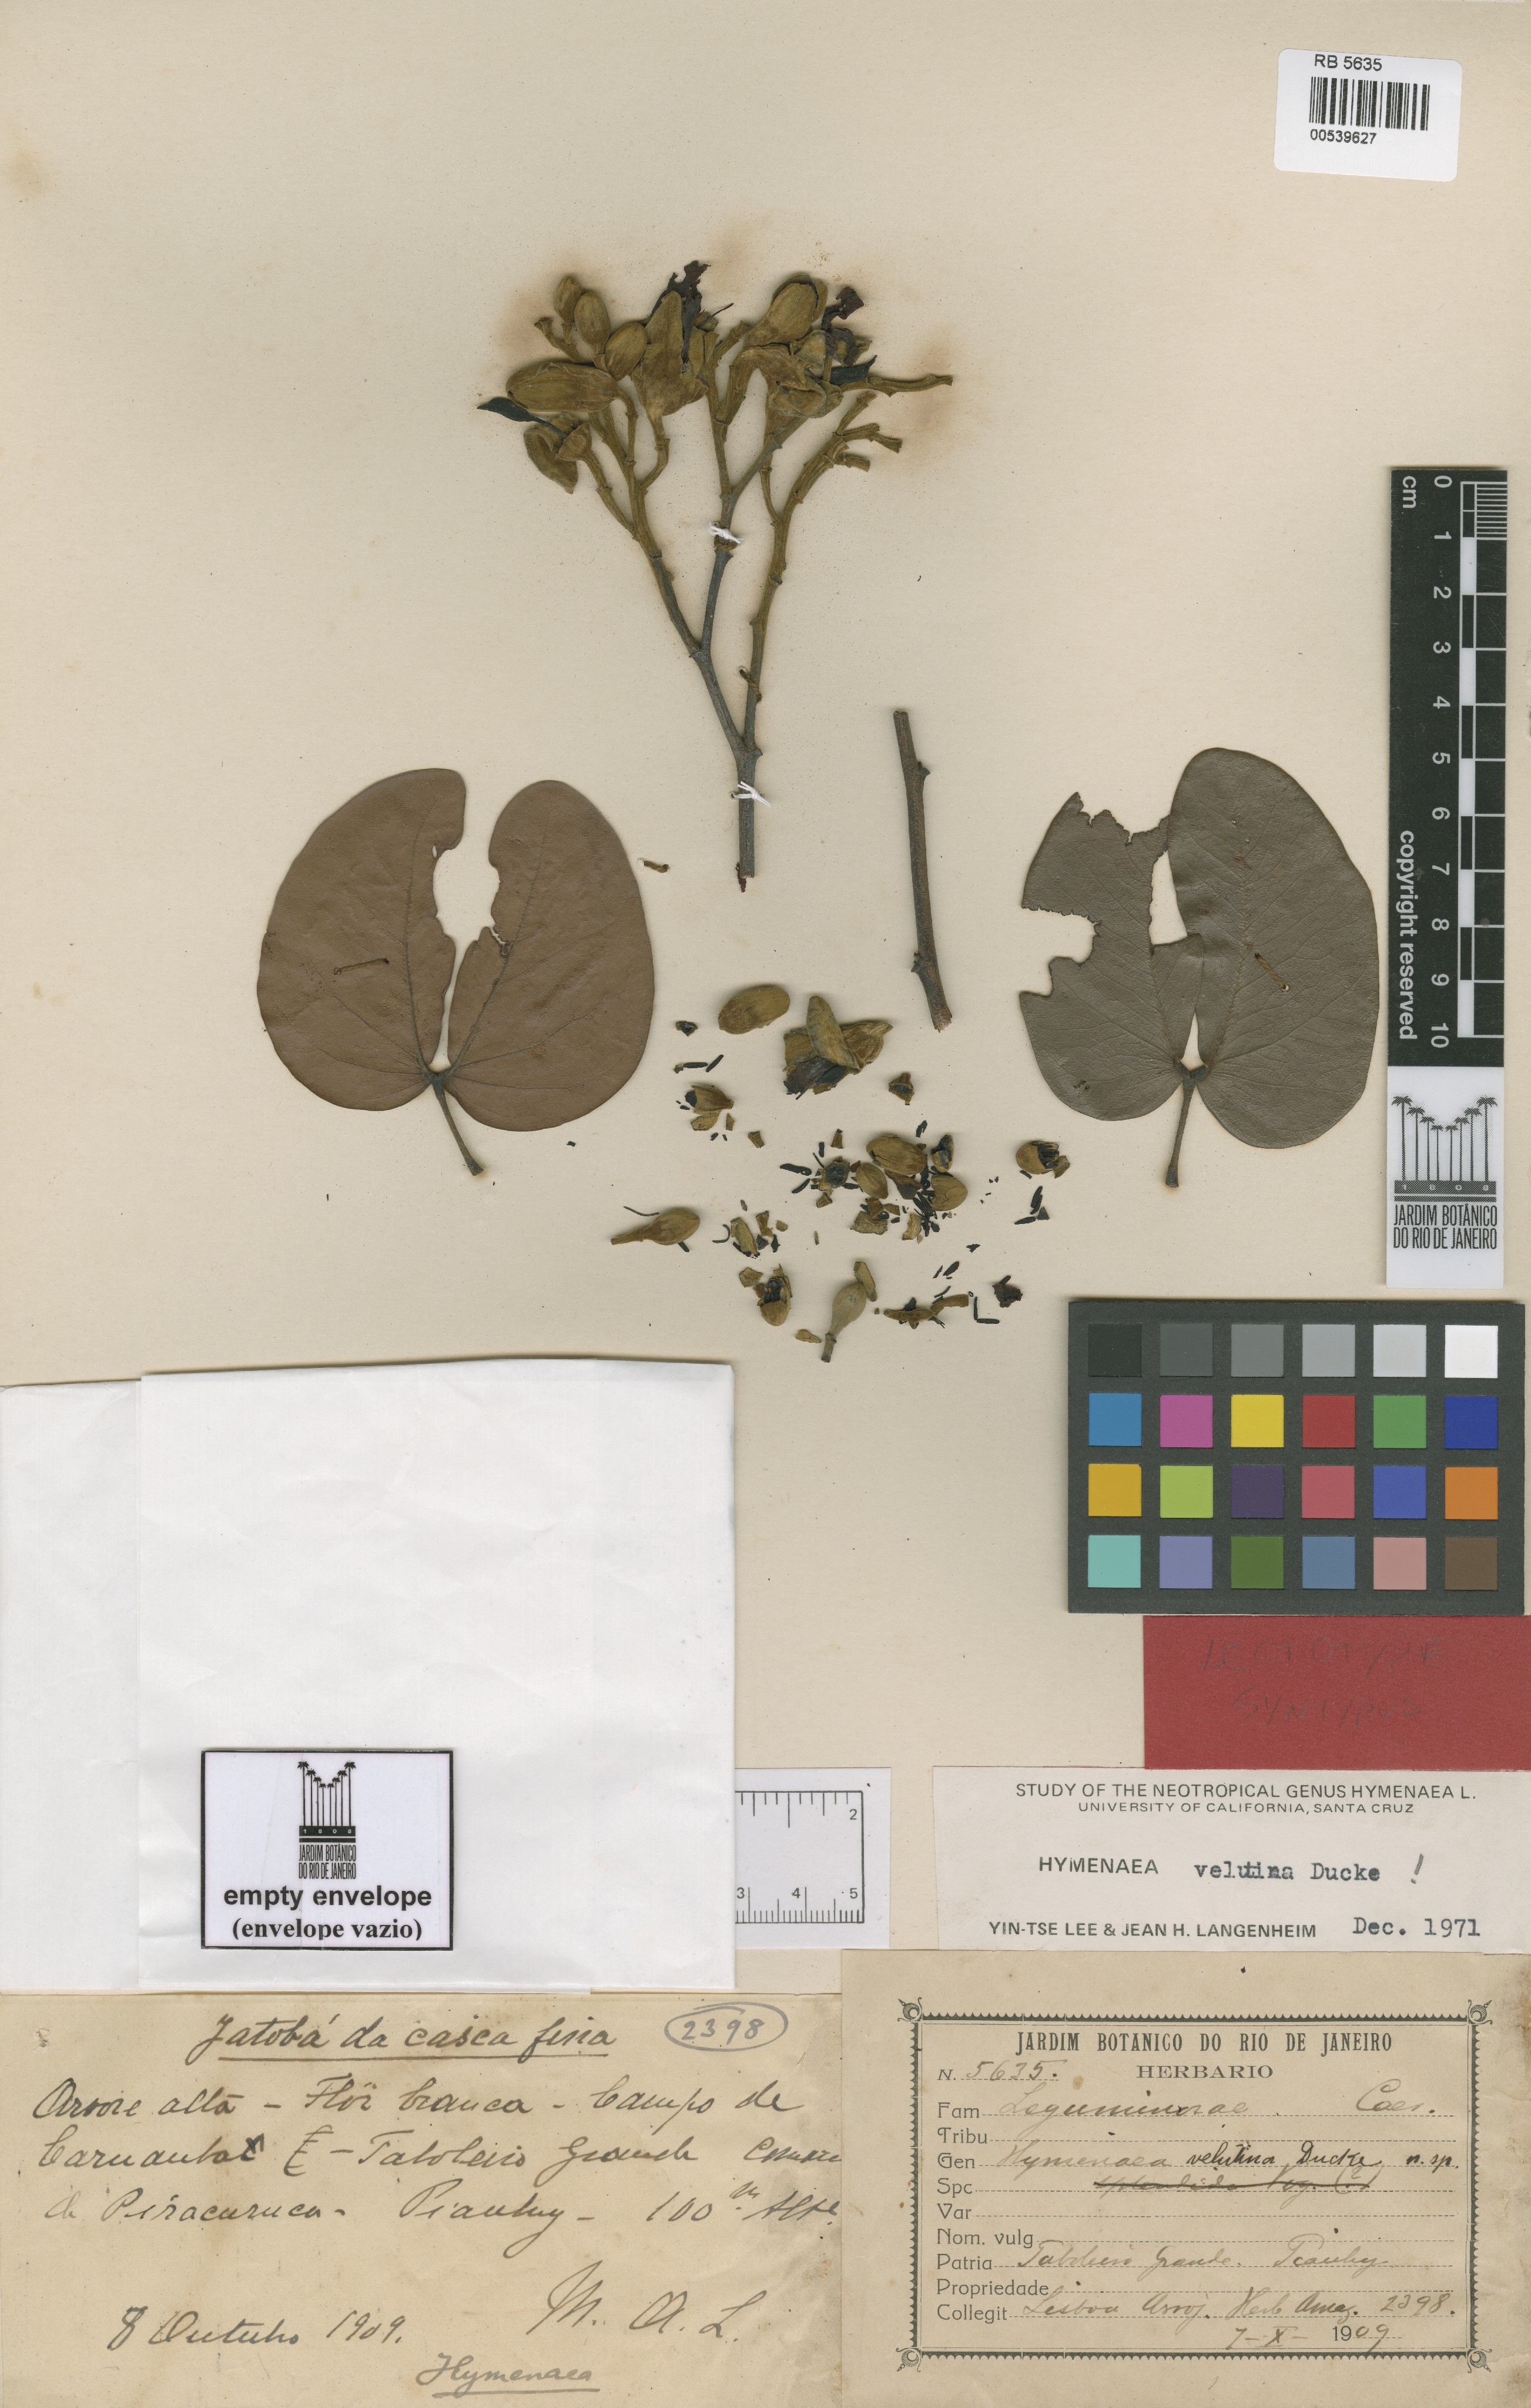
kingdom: Plantae
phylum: Tracheophyta
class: Magnoliopsida
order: Fabales
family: Fabaceae
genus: Hymenaea
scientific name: Hymenaea velutina
